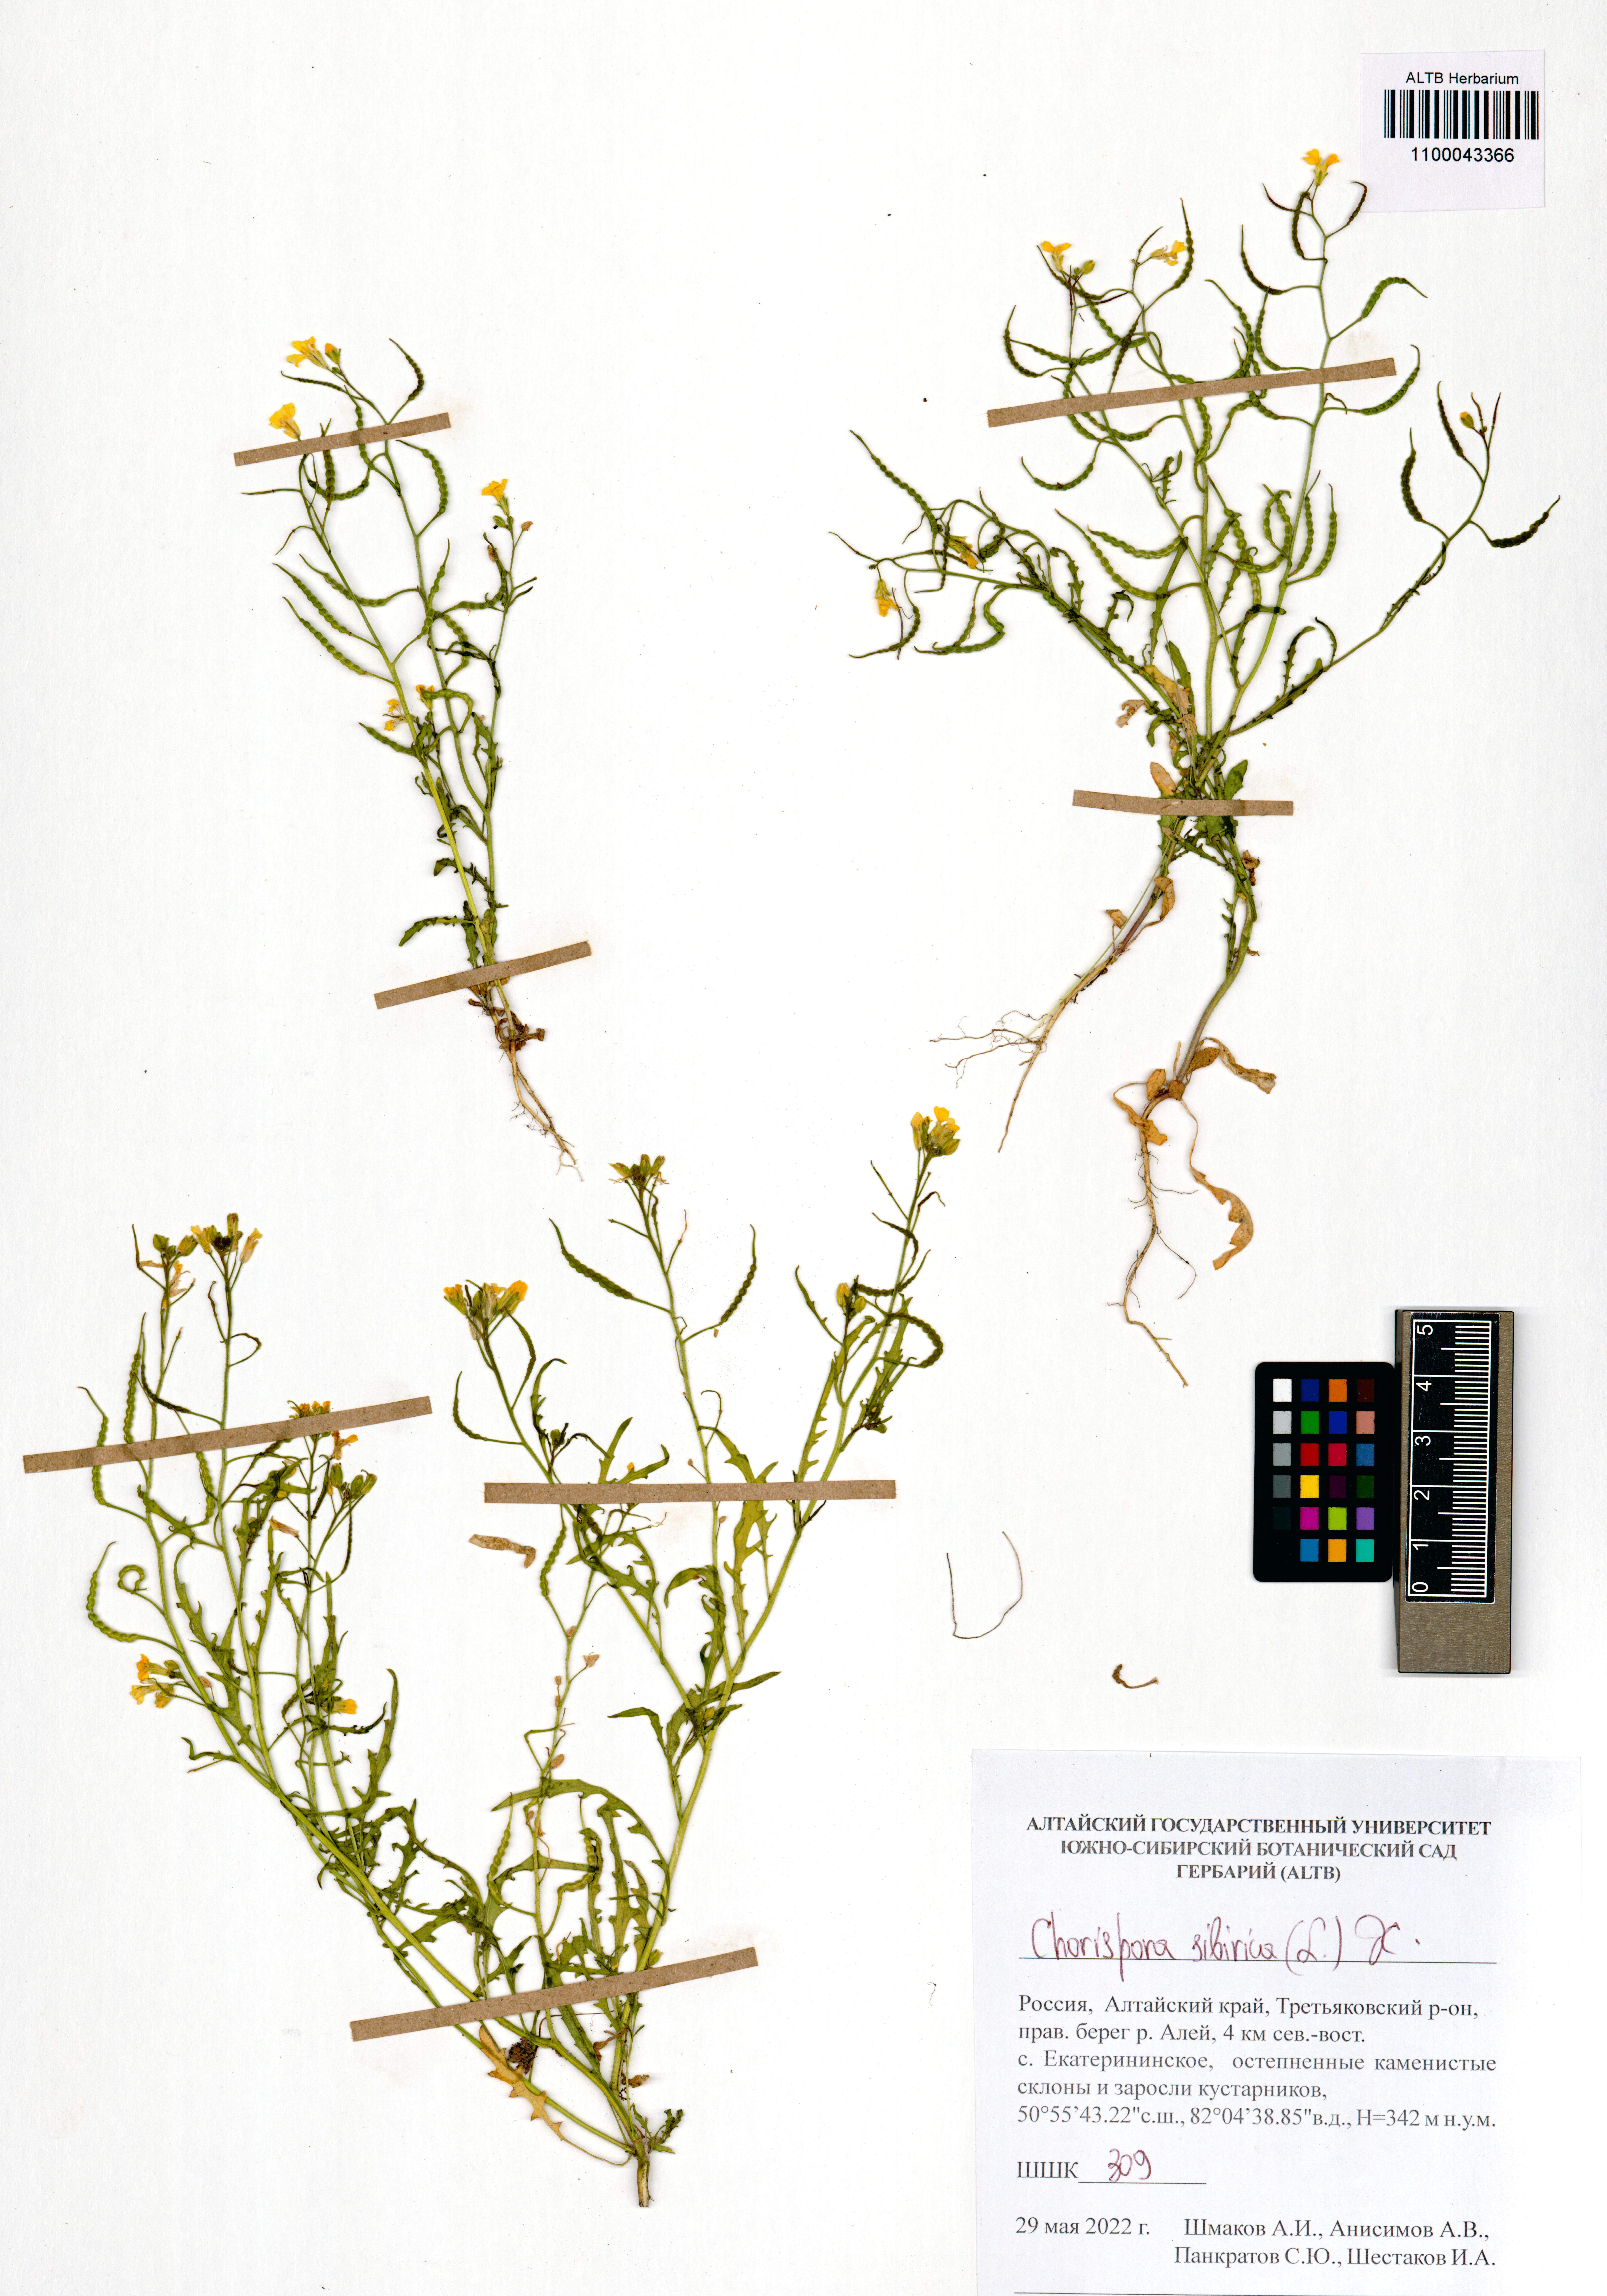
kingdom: Plantae
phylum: Tracheophyta
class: Magnoliopsida
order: Brassicales
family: Brassicaceae
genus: Chorispora
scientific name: Chorispora sibirica
